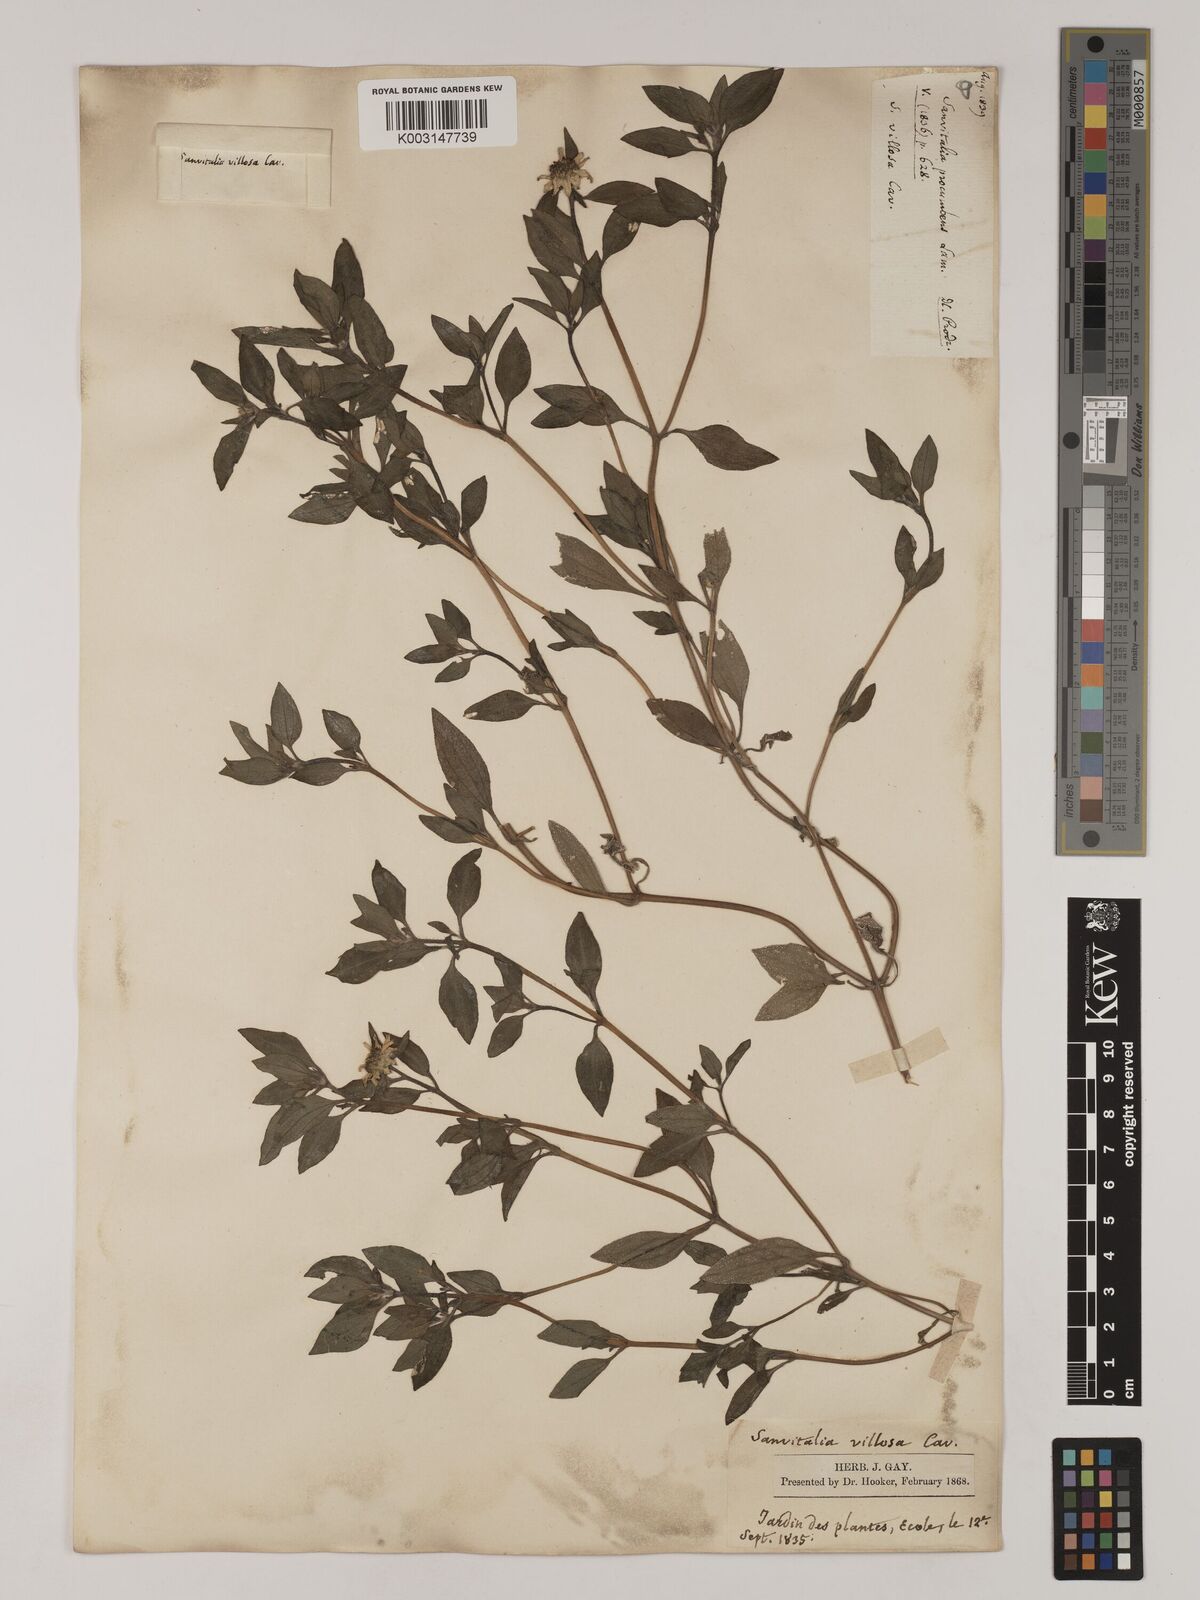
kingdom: Plantae
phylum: Tracheophyta
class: Magnoliopsida
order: Asterales
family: Asteraceae
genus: Sanvitalia
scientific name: Sanvitalia procumbens
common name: Mexican creeping zinnia
